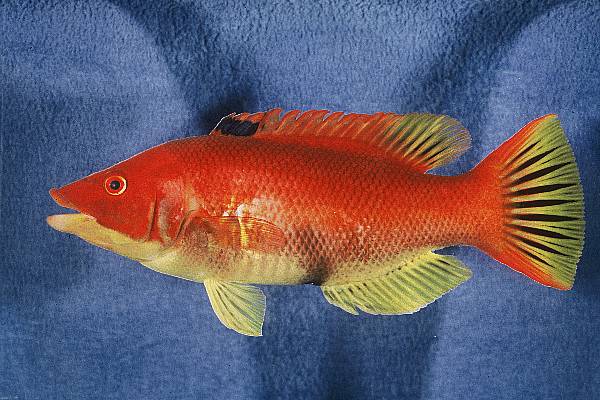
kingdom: Animalia
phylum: Chordata
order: Perciformes
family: Labridae
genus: Bodianus
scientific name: Bodianus scrofa
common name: Barred hogfish
